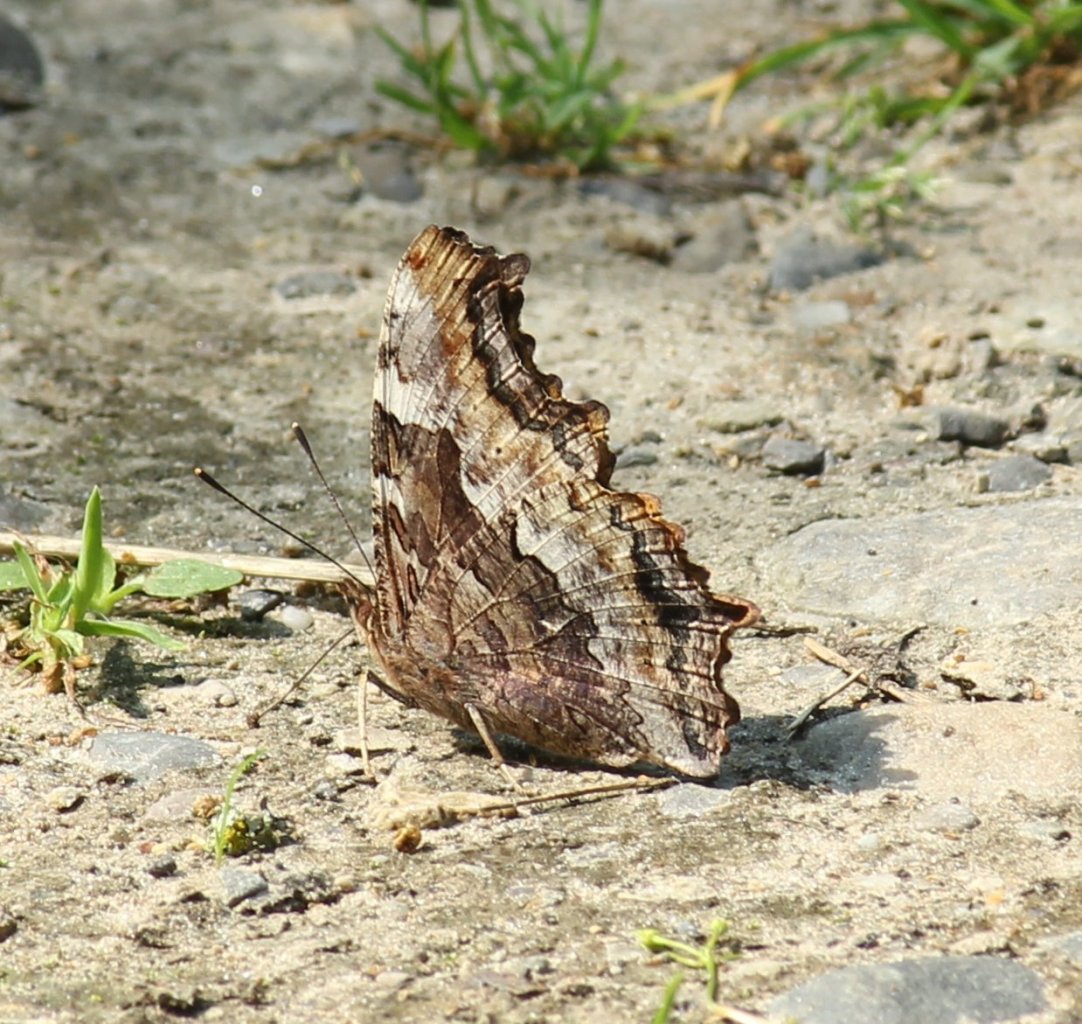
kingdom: Animalia
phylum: Arthropoda
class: Insecta
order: Lepidoptera
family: Nymphalidae
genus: Polygonia
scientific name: Polygonia vaualbum
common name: Compton Tortoiseshell
